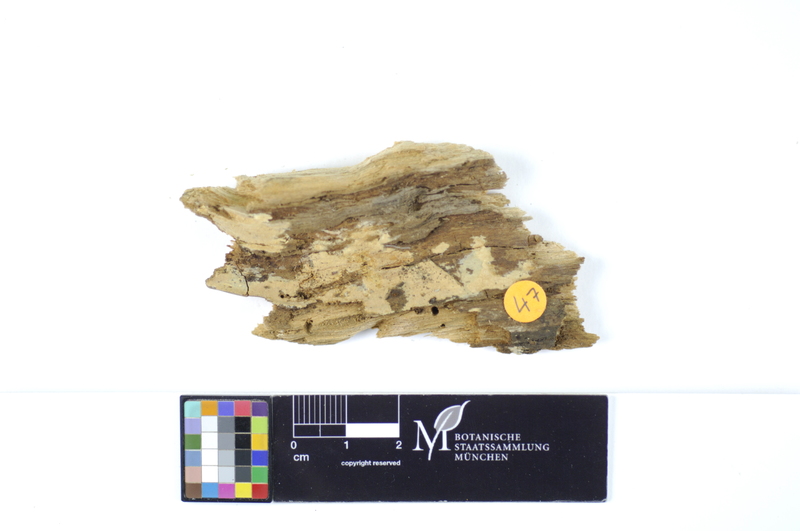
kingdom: Fungi
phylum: Basidiomycota
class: Agaricomycetes
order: Hymenochaetales
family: Rickenellaceae
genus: Peniophorella
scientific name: Peniophorella pubera
